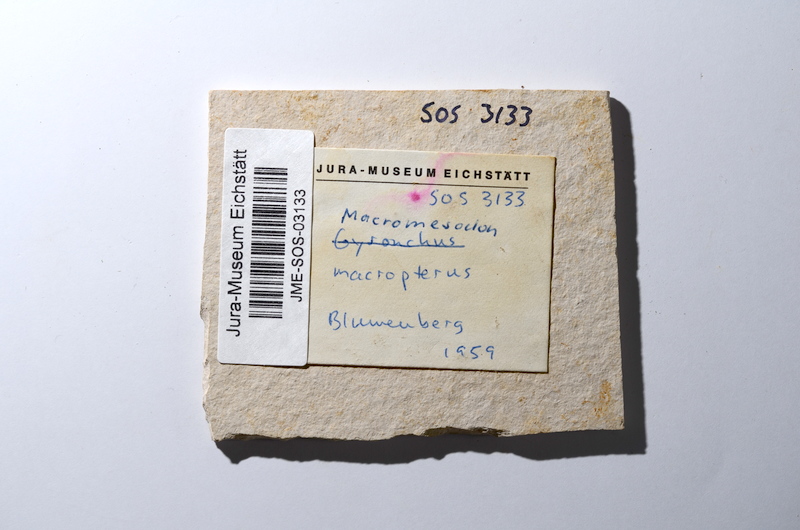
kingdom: Animalia
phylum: Chordata
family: Pycnodontidae
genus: Turbomesodon
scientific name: Turbomesodon relegans
